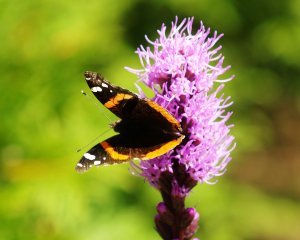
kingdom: Animalia
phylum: Arthropoda
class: Insecta
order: Lepidoptera
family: Nymphalidae
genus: Vanessa
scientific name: Vanessa atalanta
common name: Red Admiral
